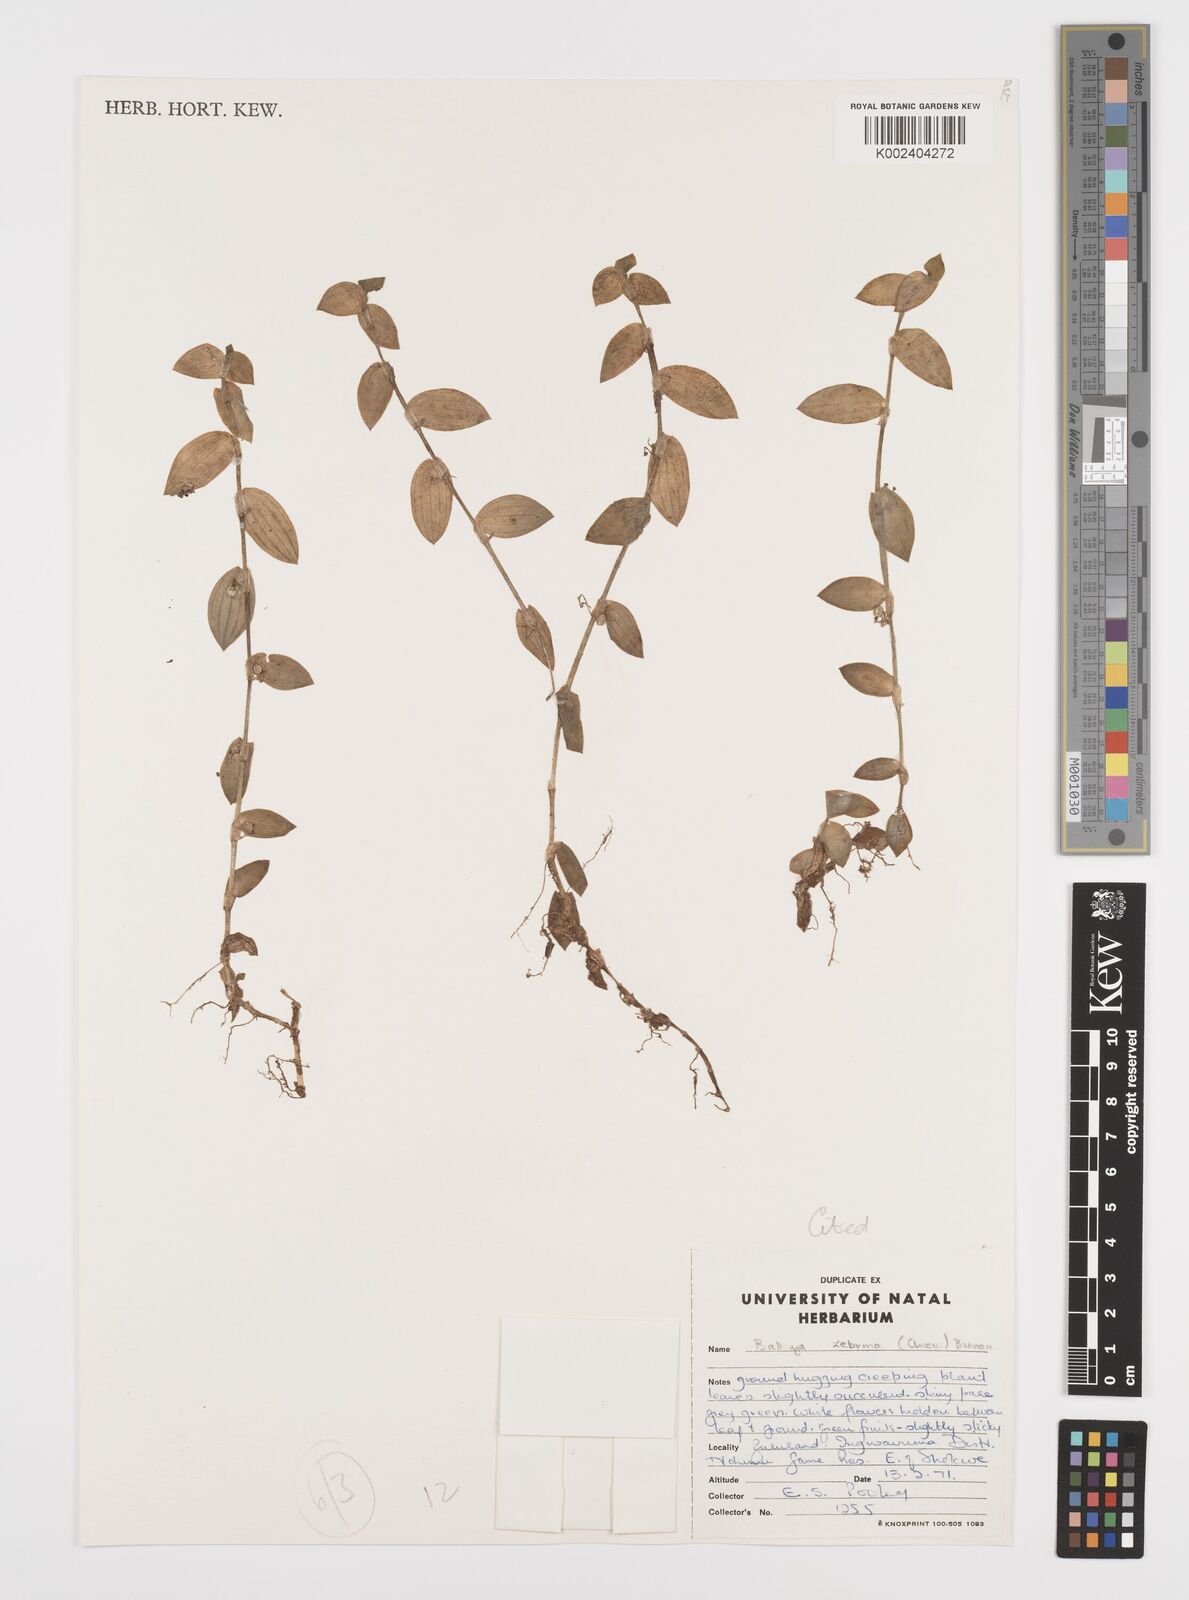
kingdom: Plantae
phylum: Tracheophyta
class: Liliopsida
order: Commelinales
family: Commelinaceae
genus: Aneilema
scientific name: Aneilema zebrinum
